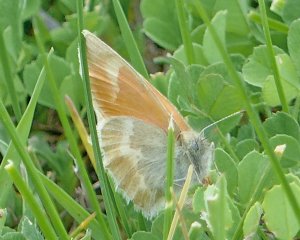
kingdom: Animalia
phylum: Arthropoda
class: Insecta
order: Lepidoptera
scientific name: Lepidoptera
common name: Butterflies
